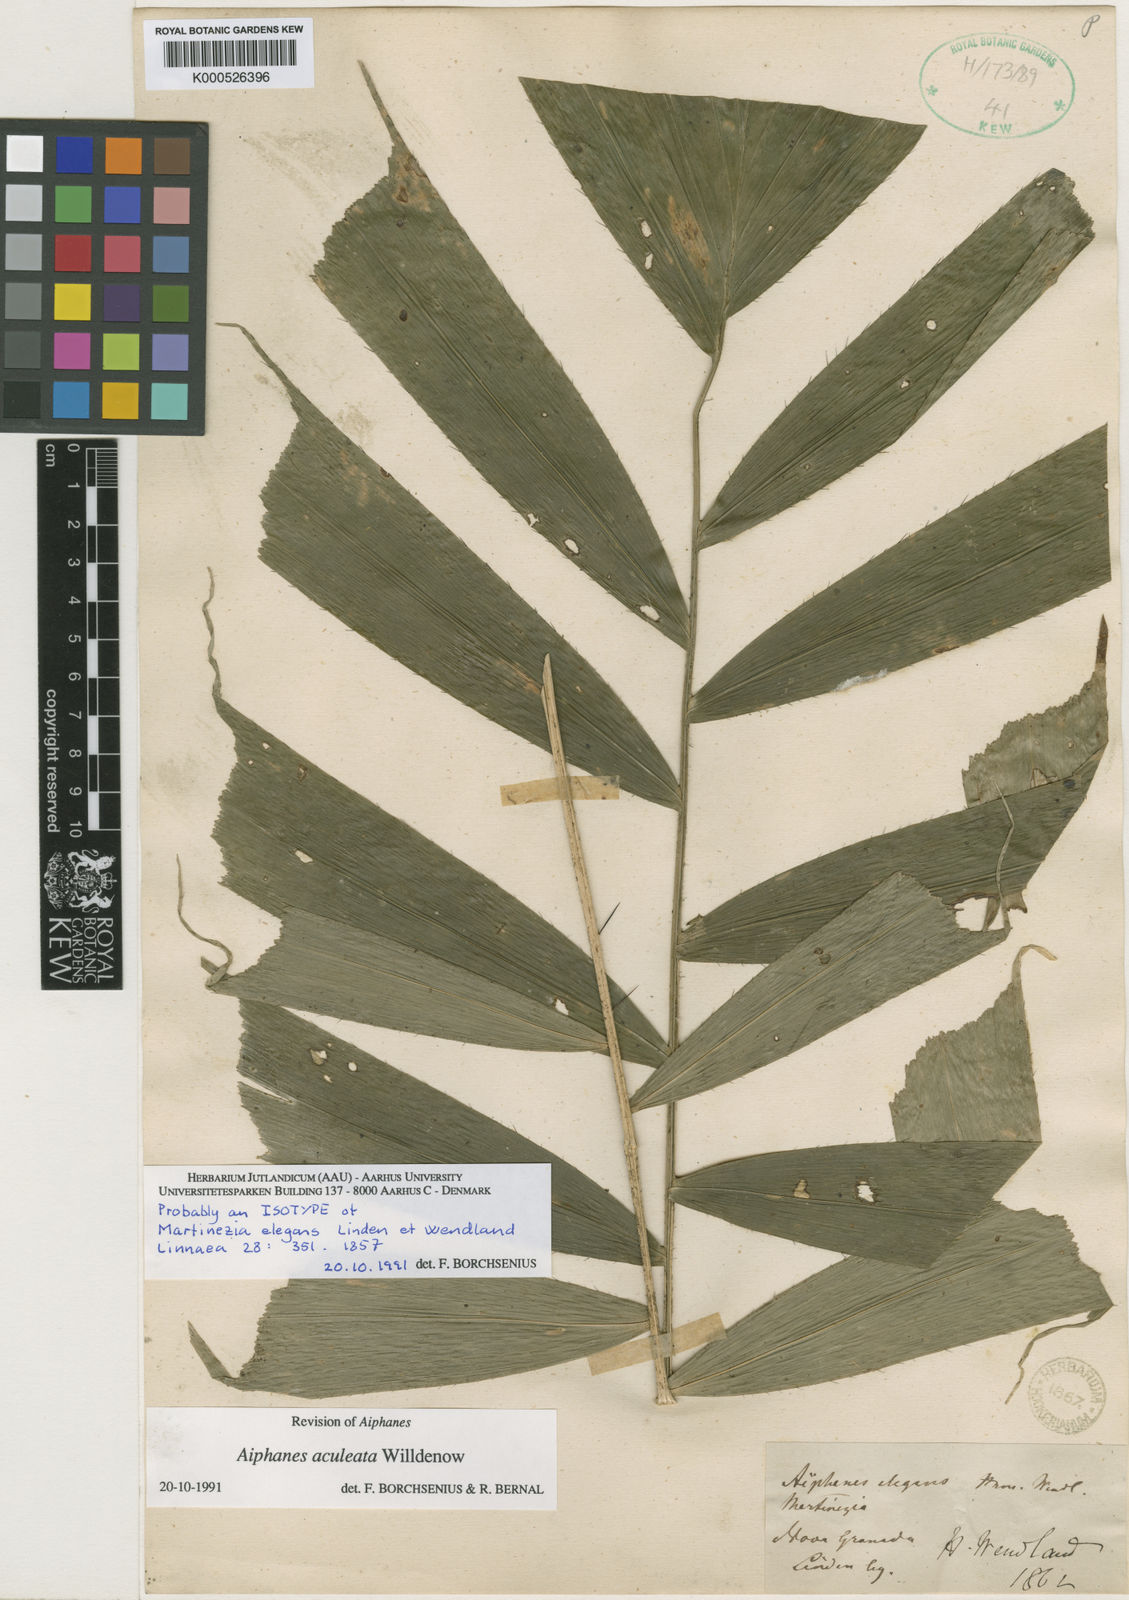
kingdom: Plantae
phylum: Tracheophyta
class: Liliopsida
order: Arecales
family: Arecaceae
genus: Aiphanes
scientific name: Aiphanes horrida
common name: Ruffle palm
